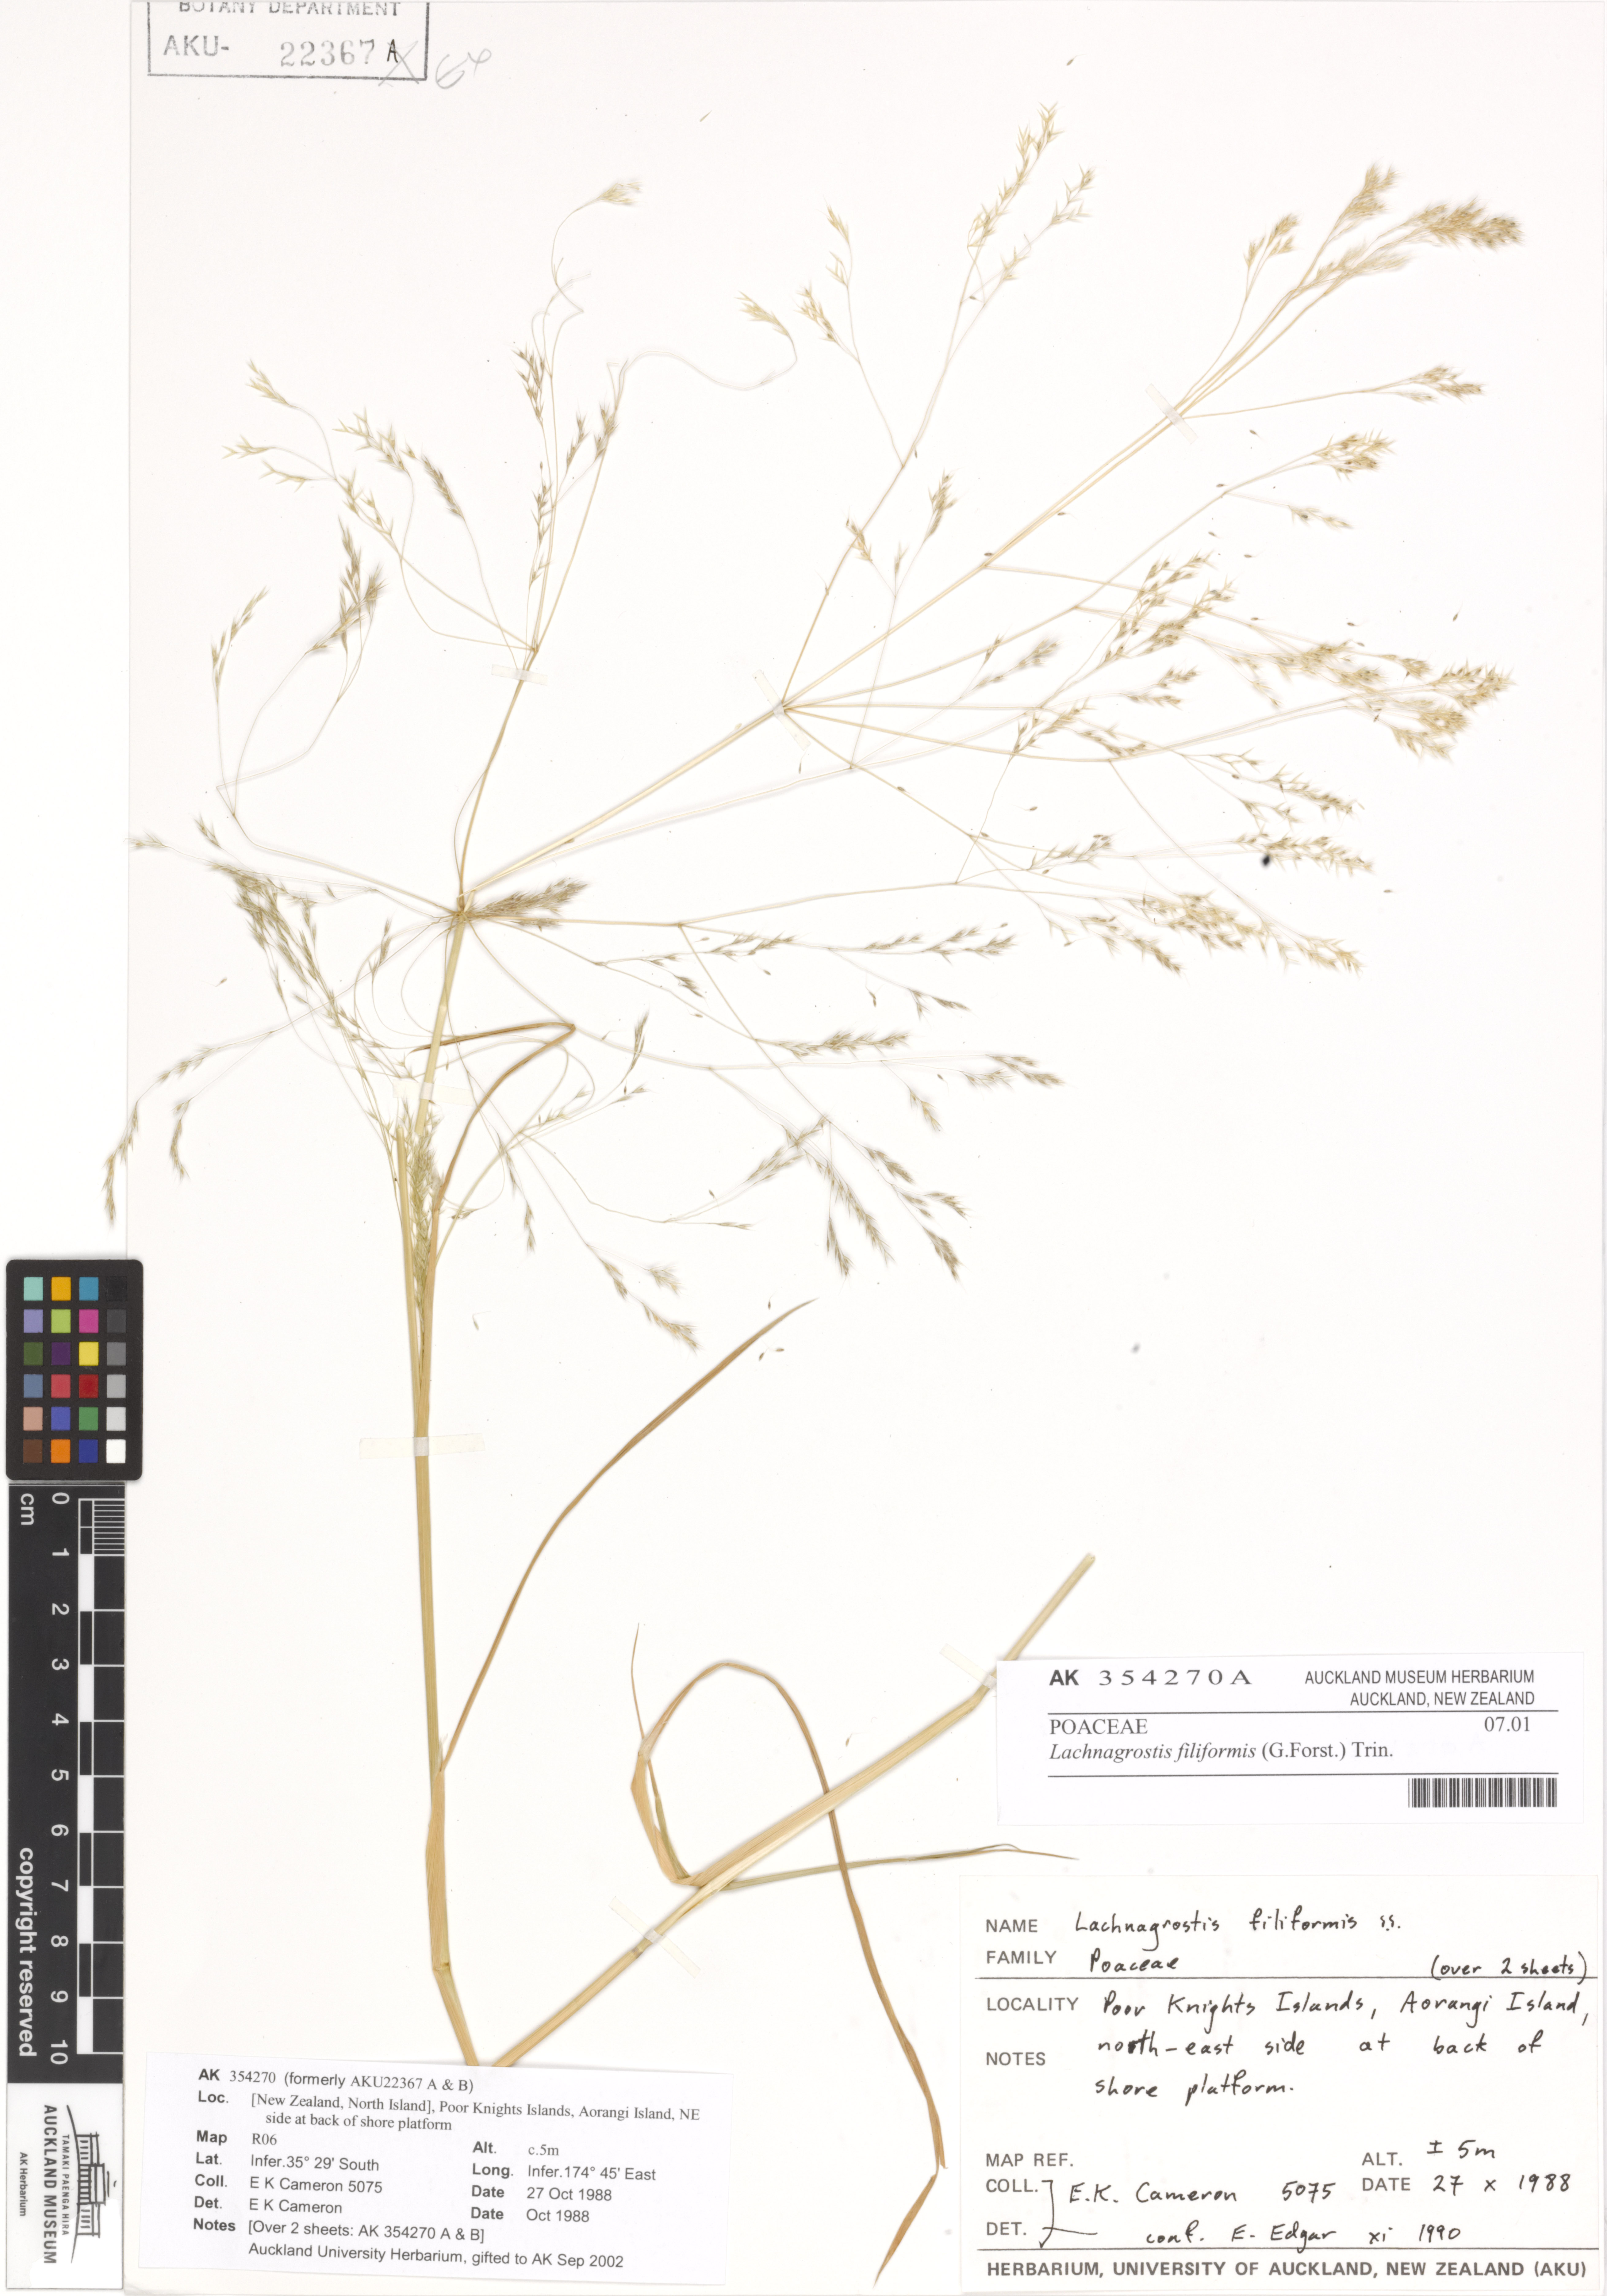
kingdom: Plantae
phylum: Tracheophyta
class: Liliopsida
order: Poales
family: Poaceae
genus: Lachnagrostis
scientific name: Lachnagrostis filiformis
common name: Bentgrass
